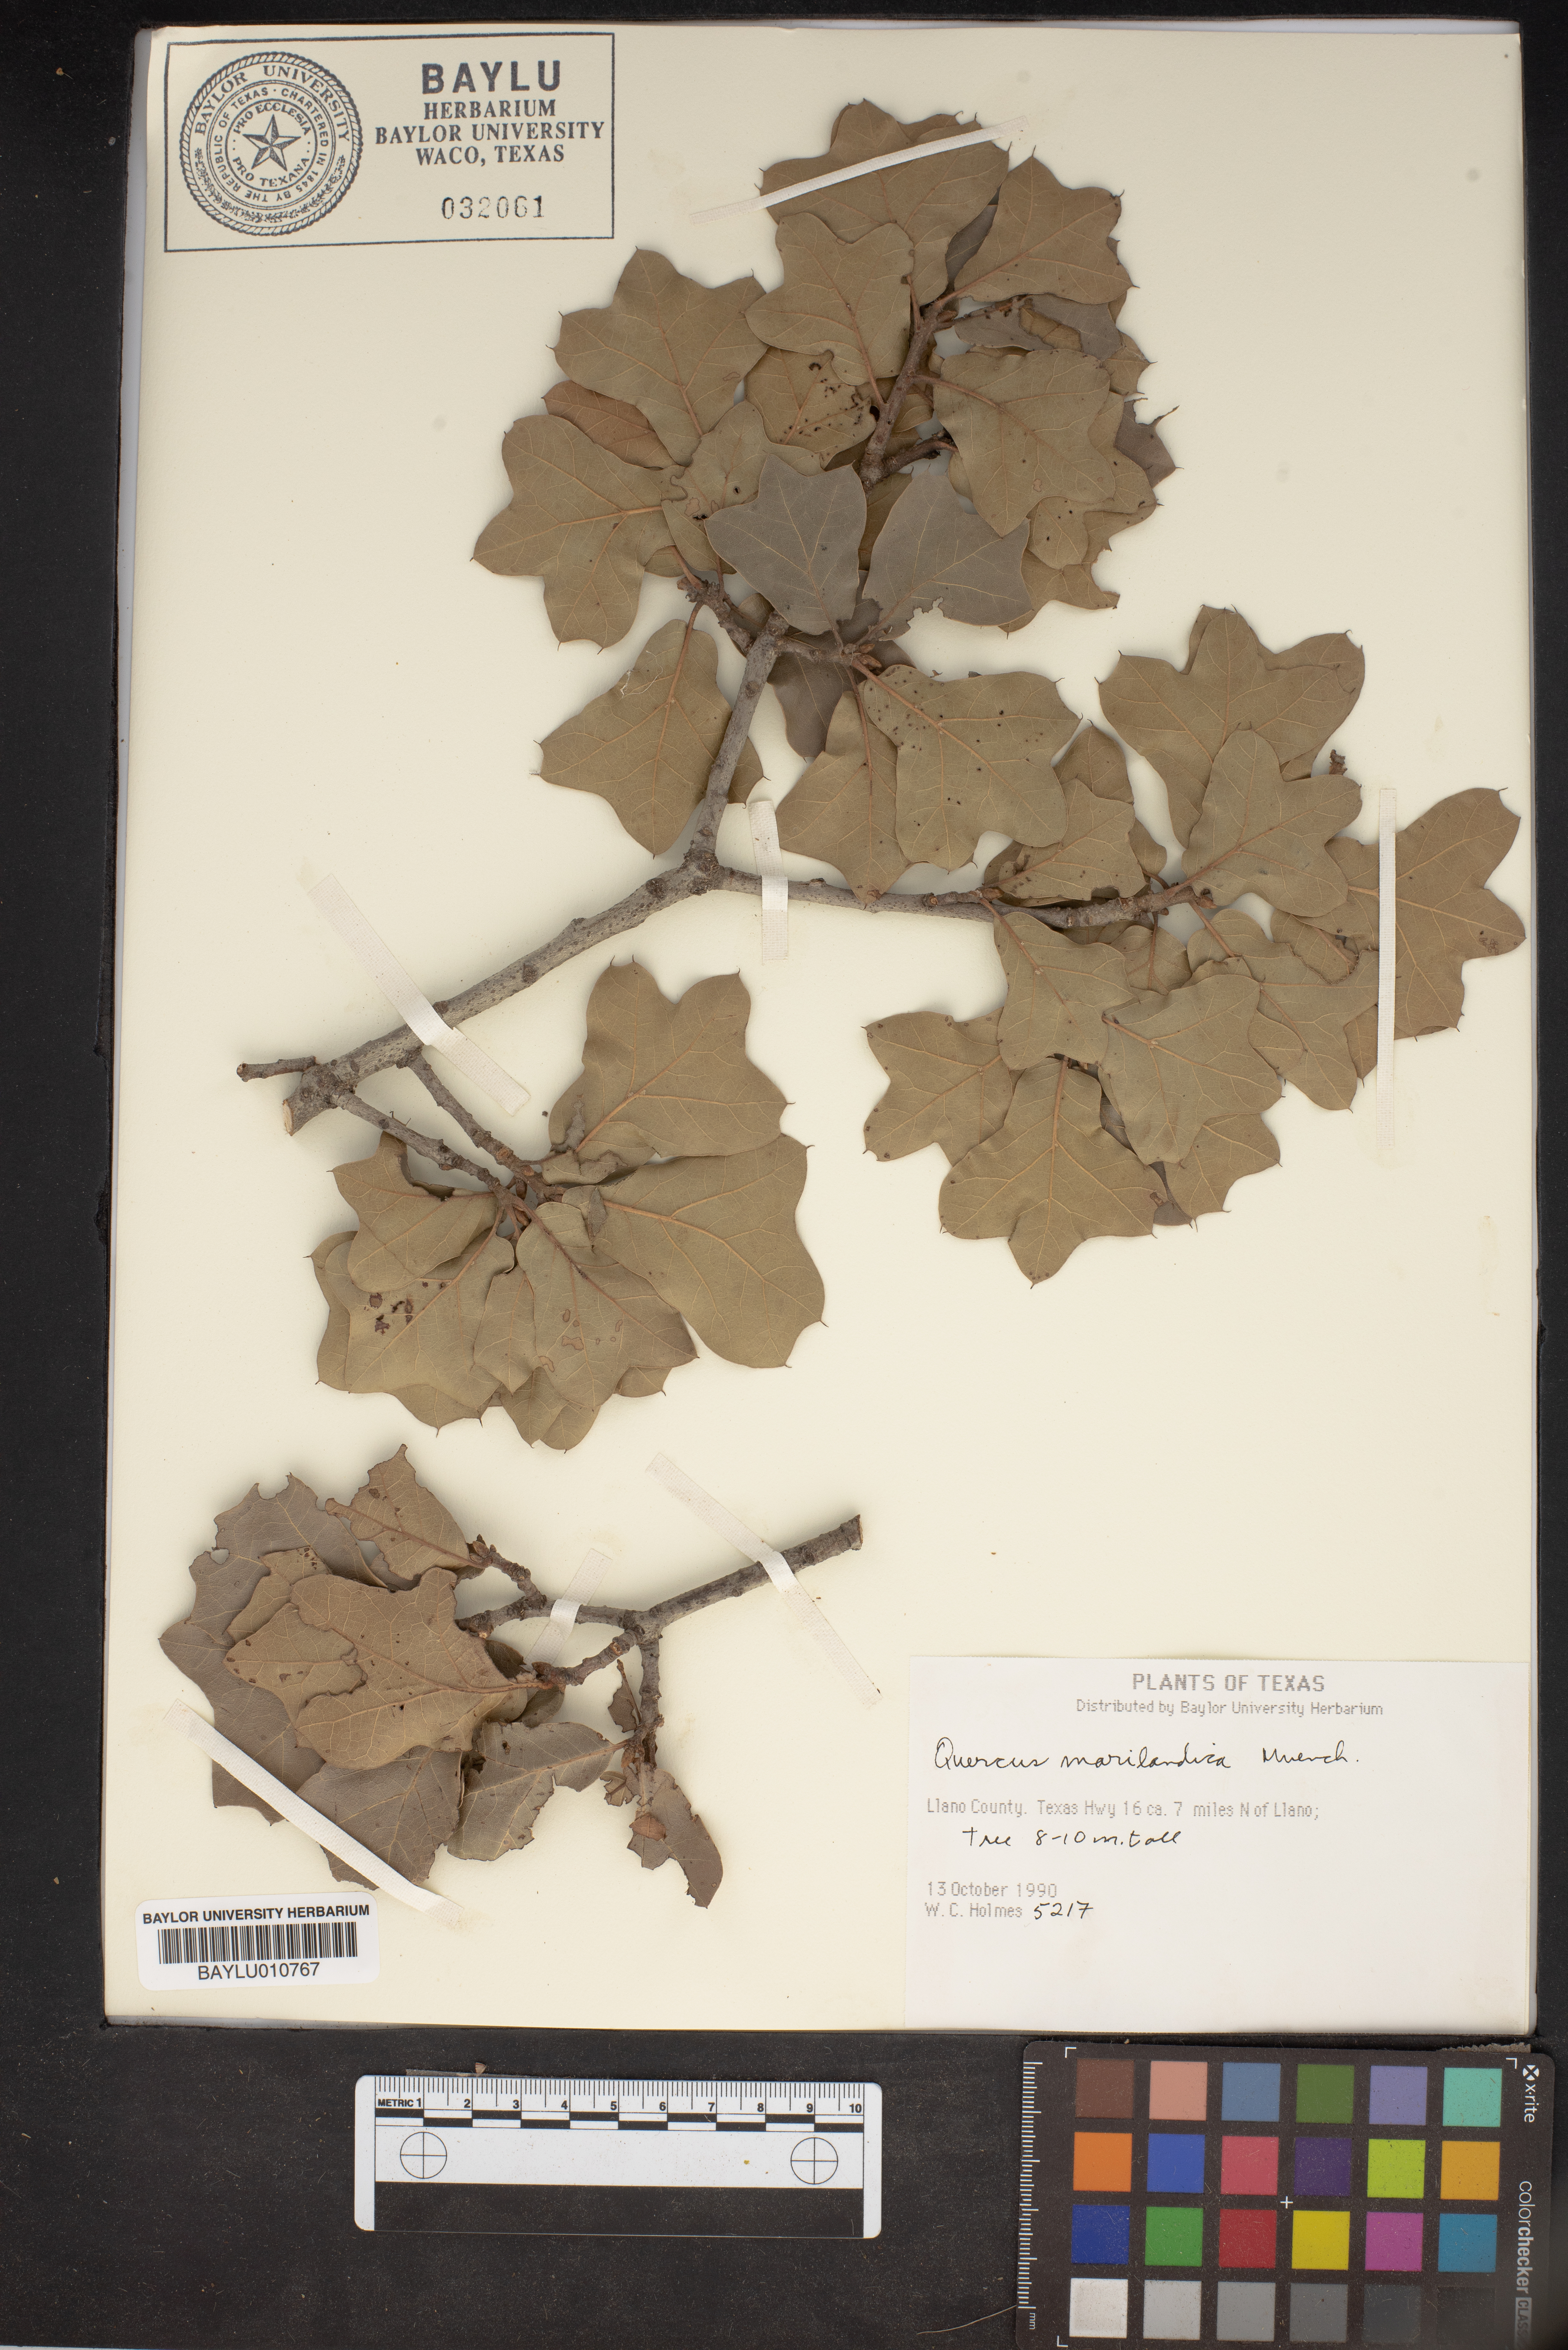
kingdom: Plantae
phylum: Tracheophyta
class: Magnoliopsida
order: Fagales
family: Fagaceae
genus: Quercus
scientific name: Quercus marilandica
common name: Blackjack oak
